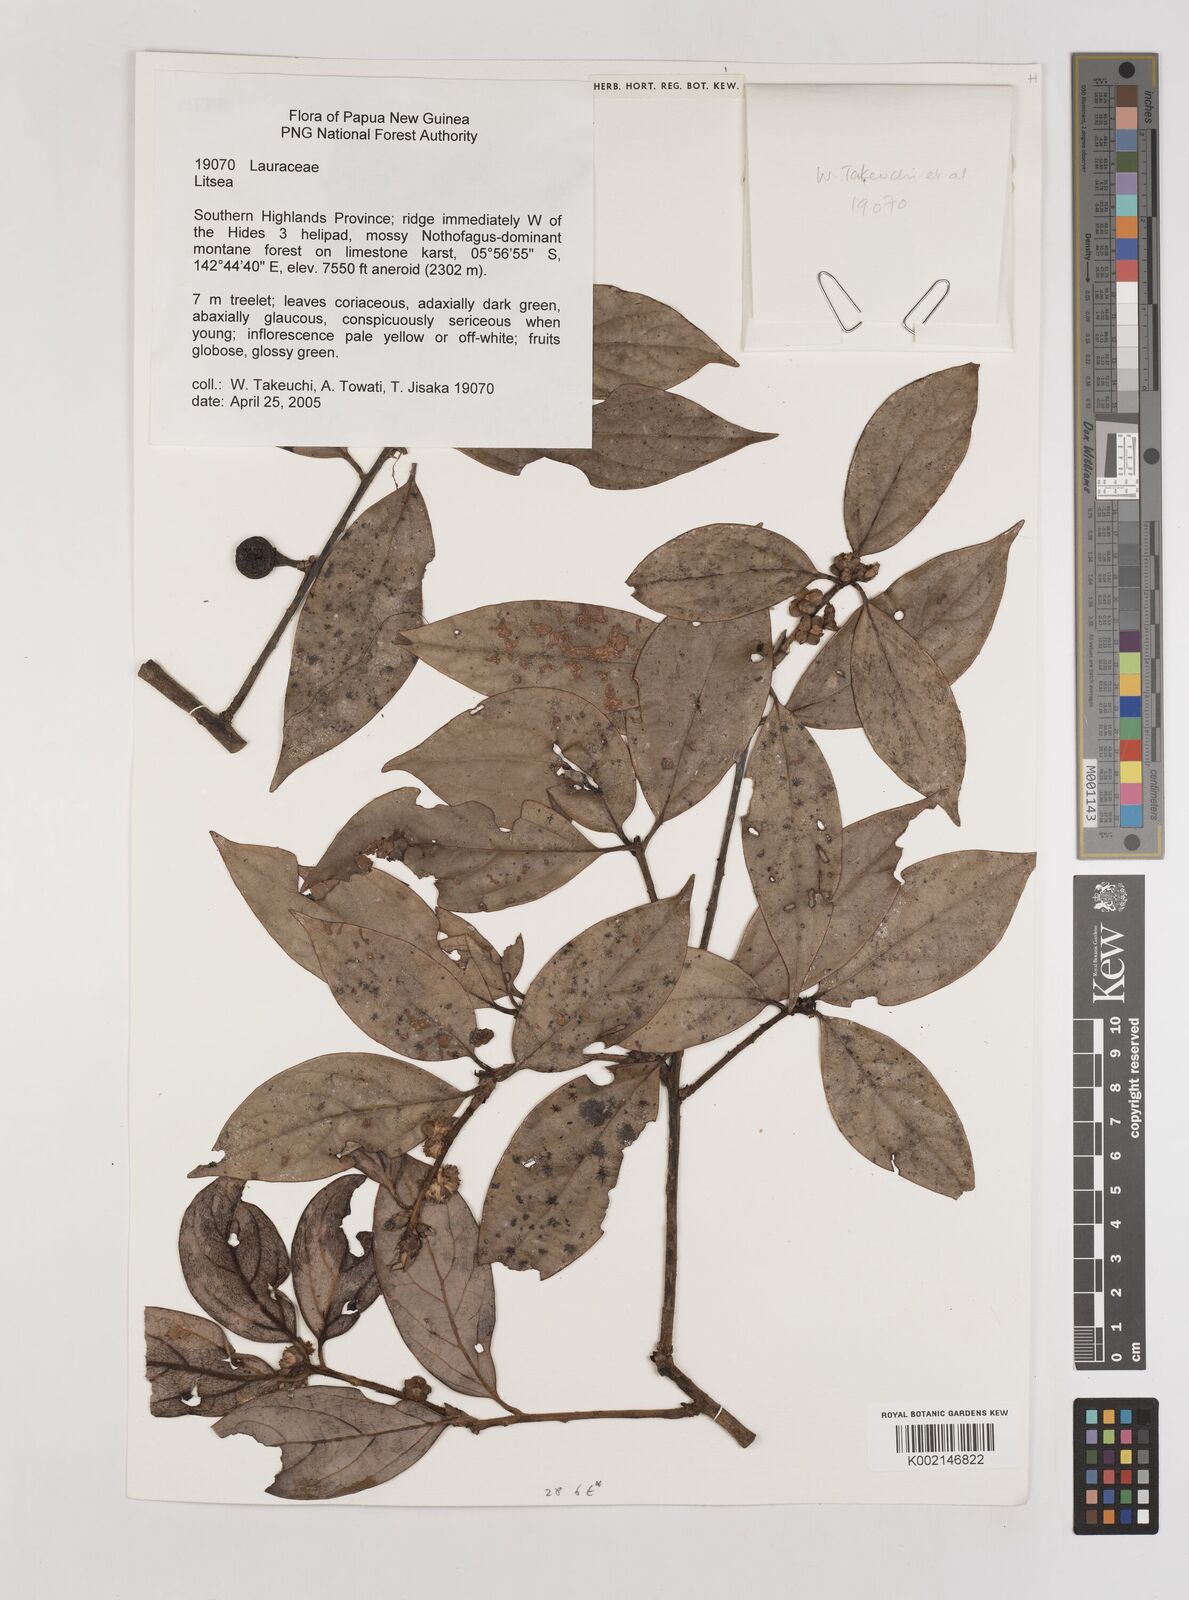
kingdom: Plantae
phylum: Tracheophyta
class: Magnoliopsida
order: Laurales
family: Lauraceae
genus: Litsea
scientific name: Litsea
